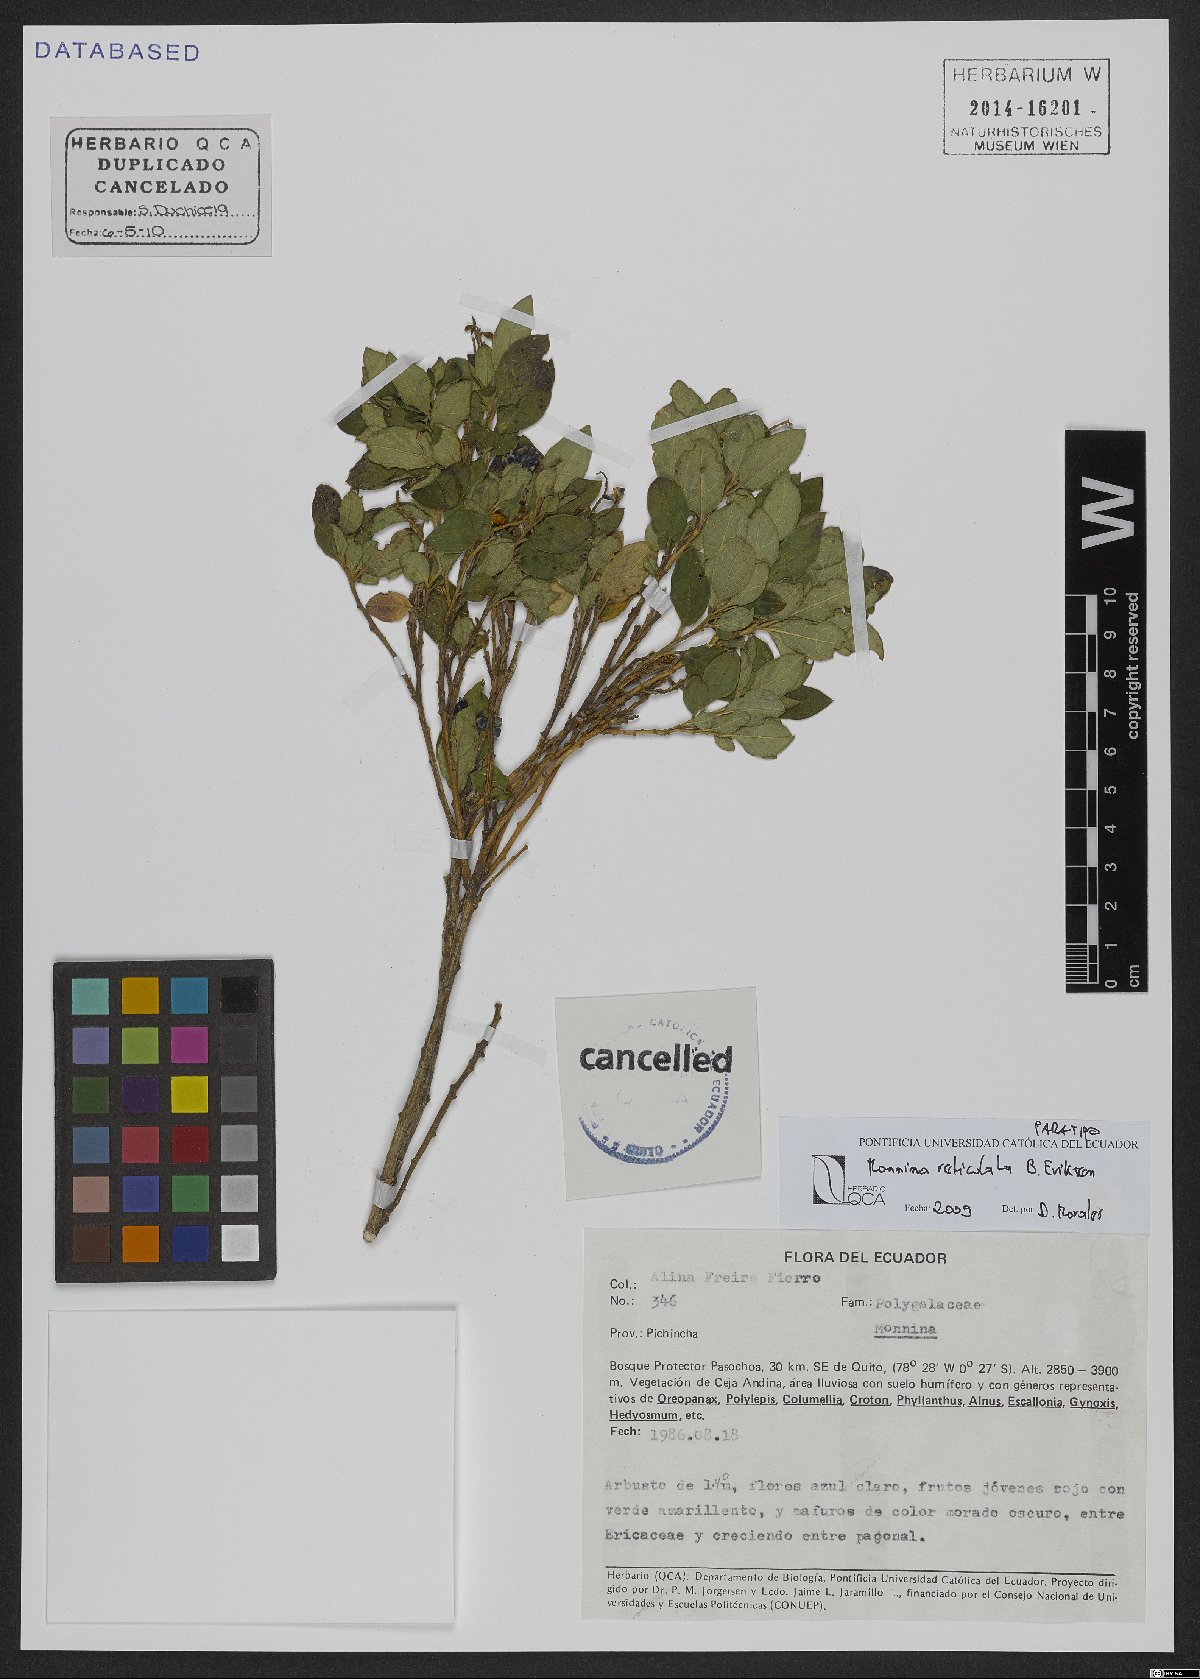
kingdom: Plantae
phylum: Tracheophyta
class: Magnoliopsida
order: Fabales
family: Polygalaceae
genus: Monnina
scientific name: Monnina reticulata
